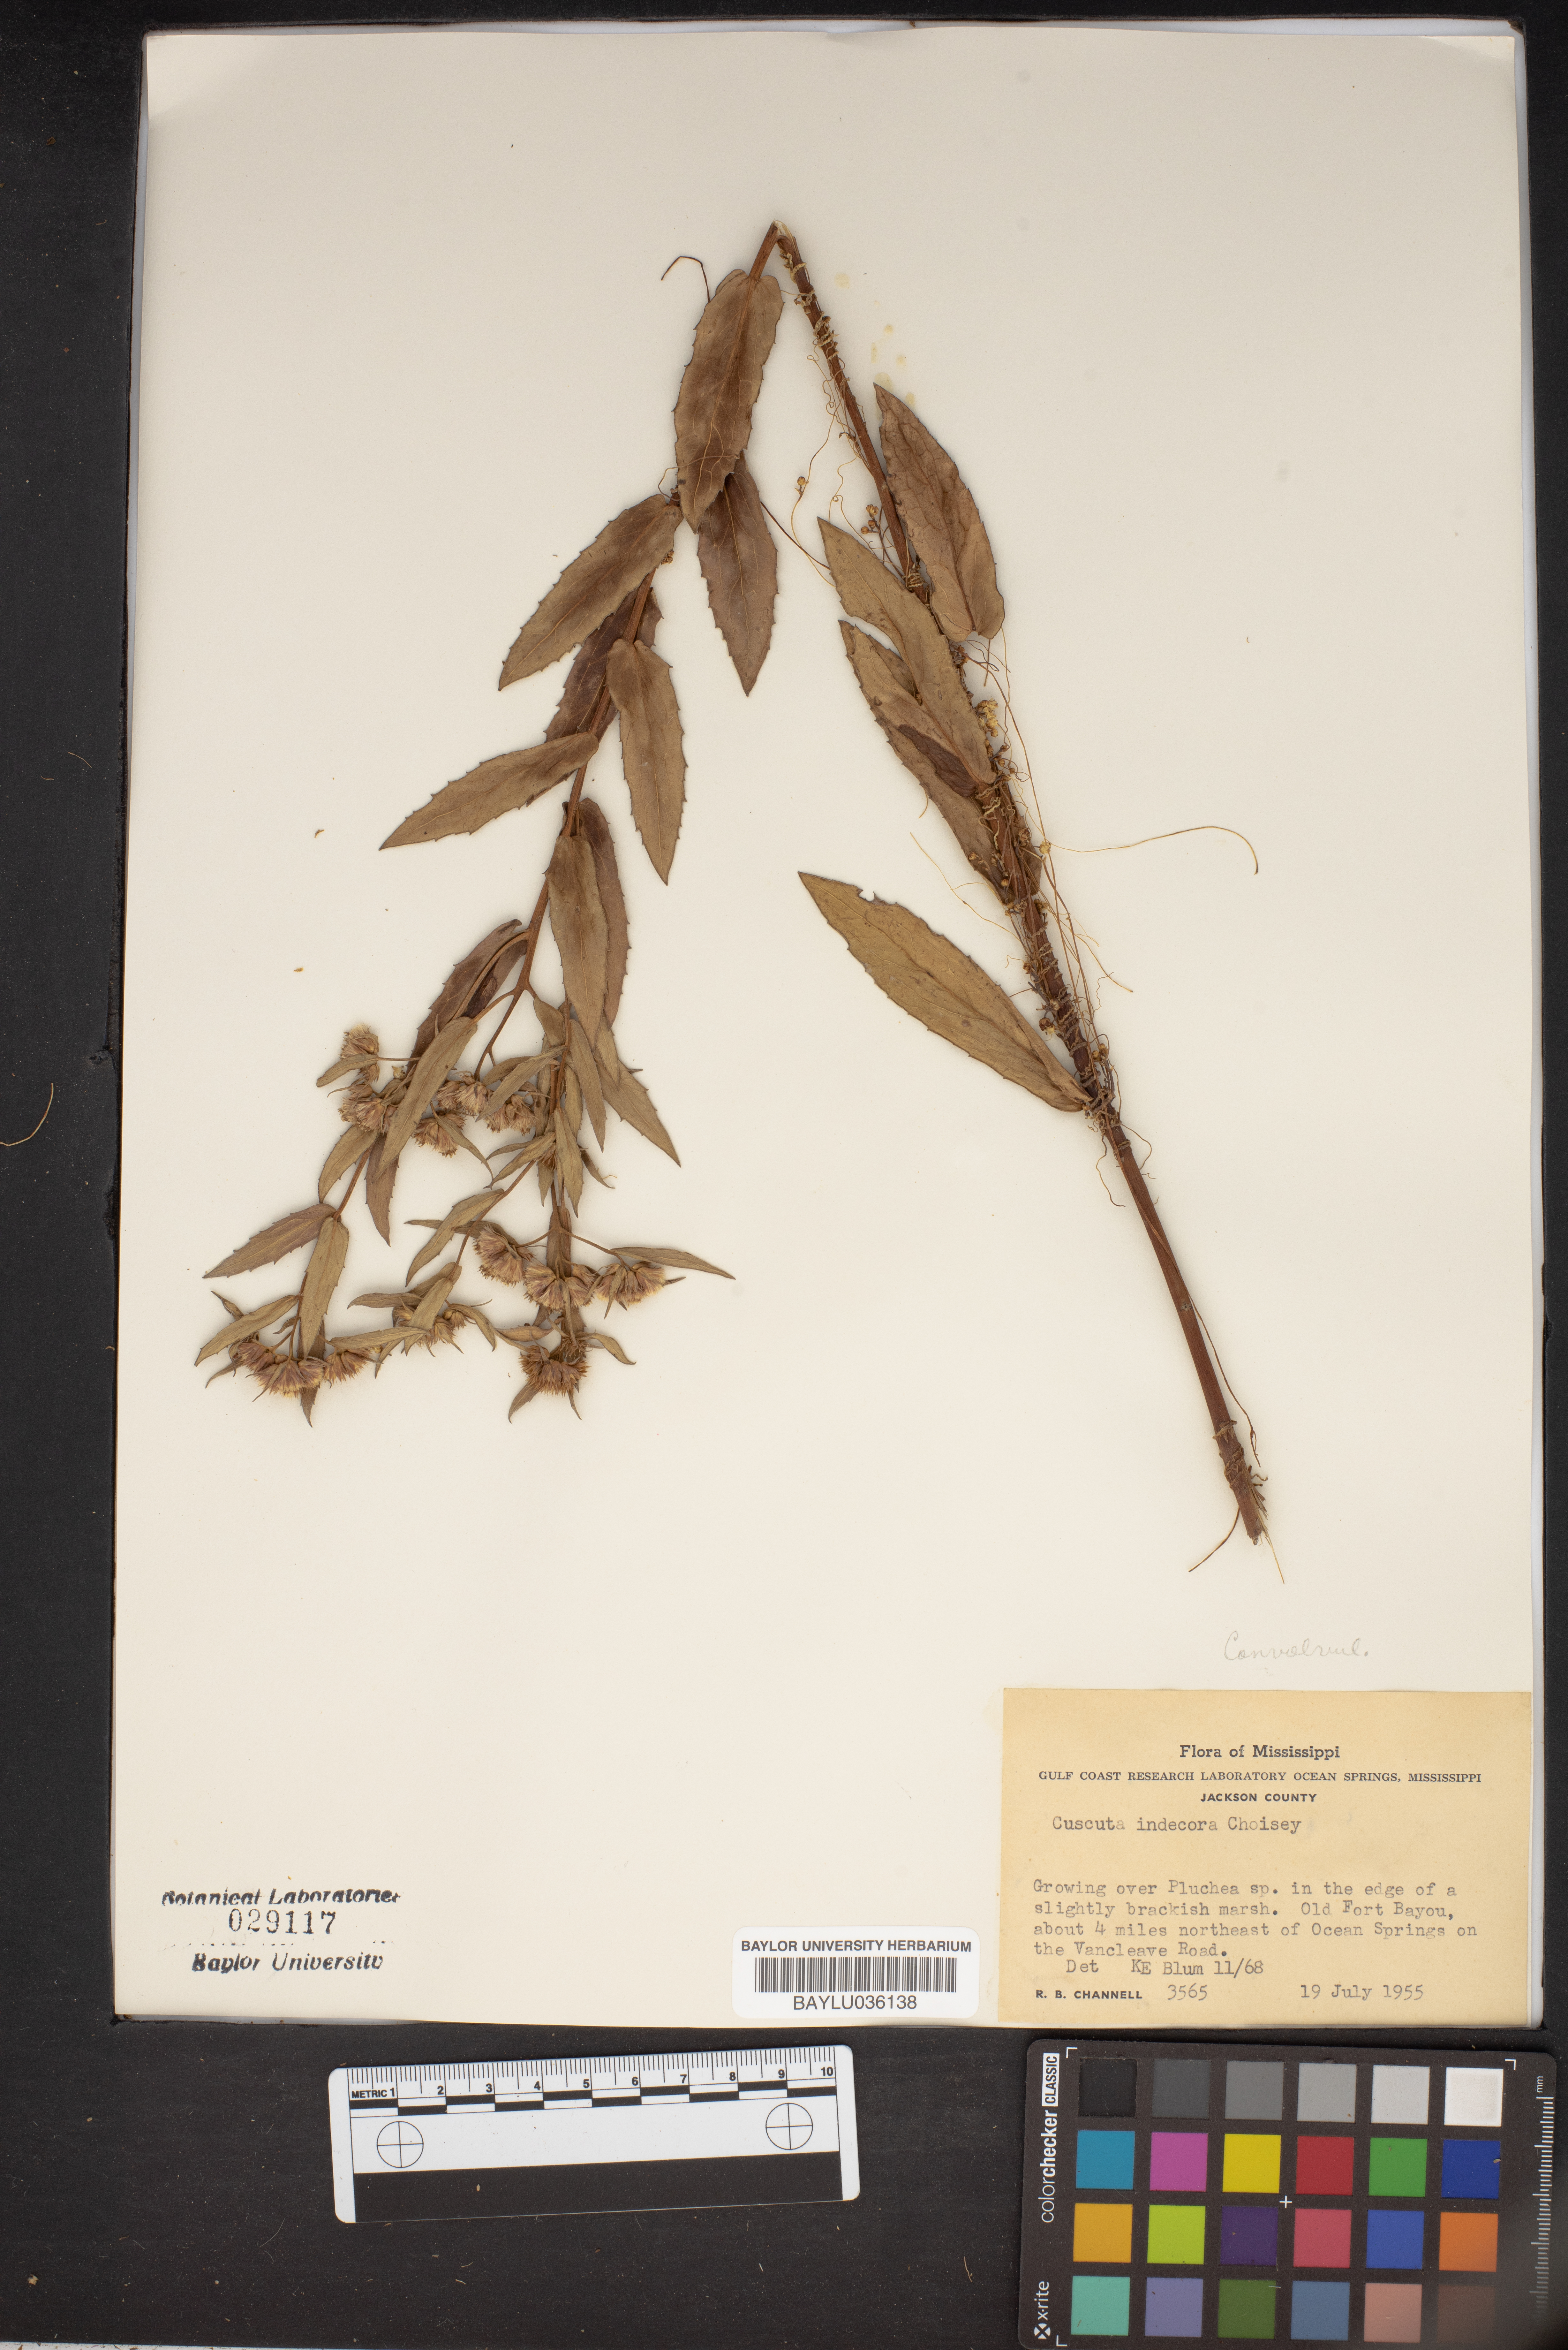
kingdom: Plantae
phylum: Tracheophyta
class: Magnoliopsida
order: Solanales
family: Convolvulaceae
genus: Cuscuta
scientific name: Cuscuta indecora
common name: Large-seed dodder
